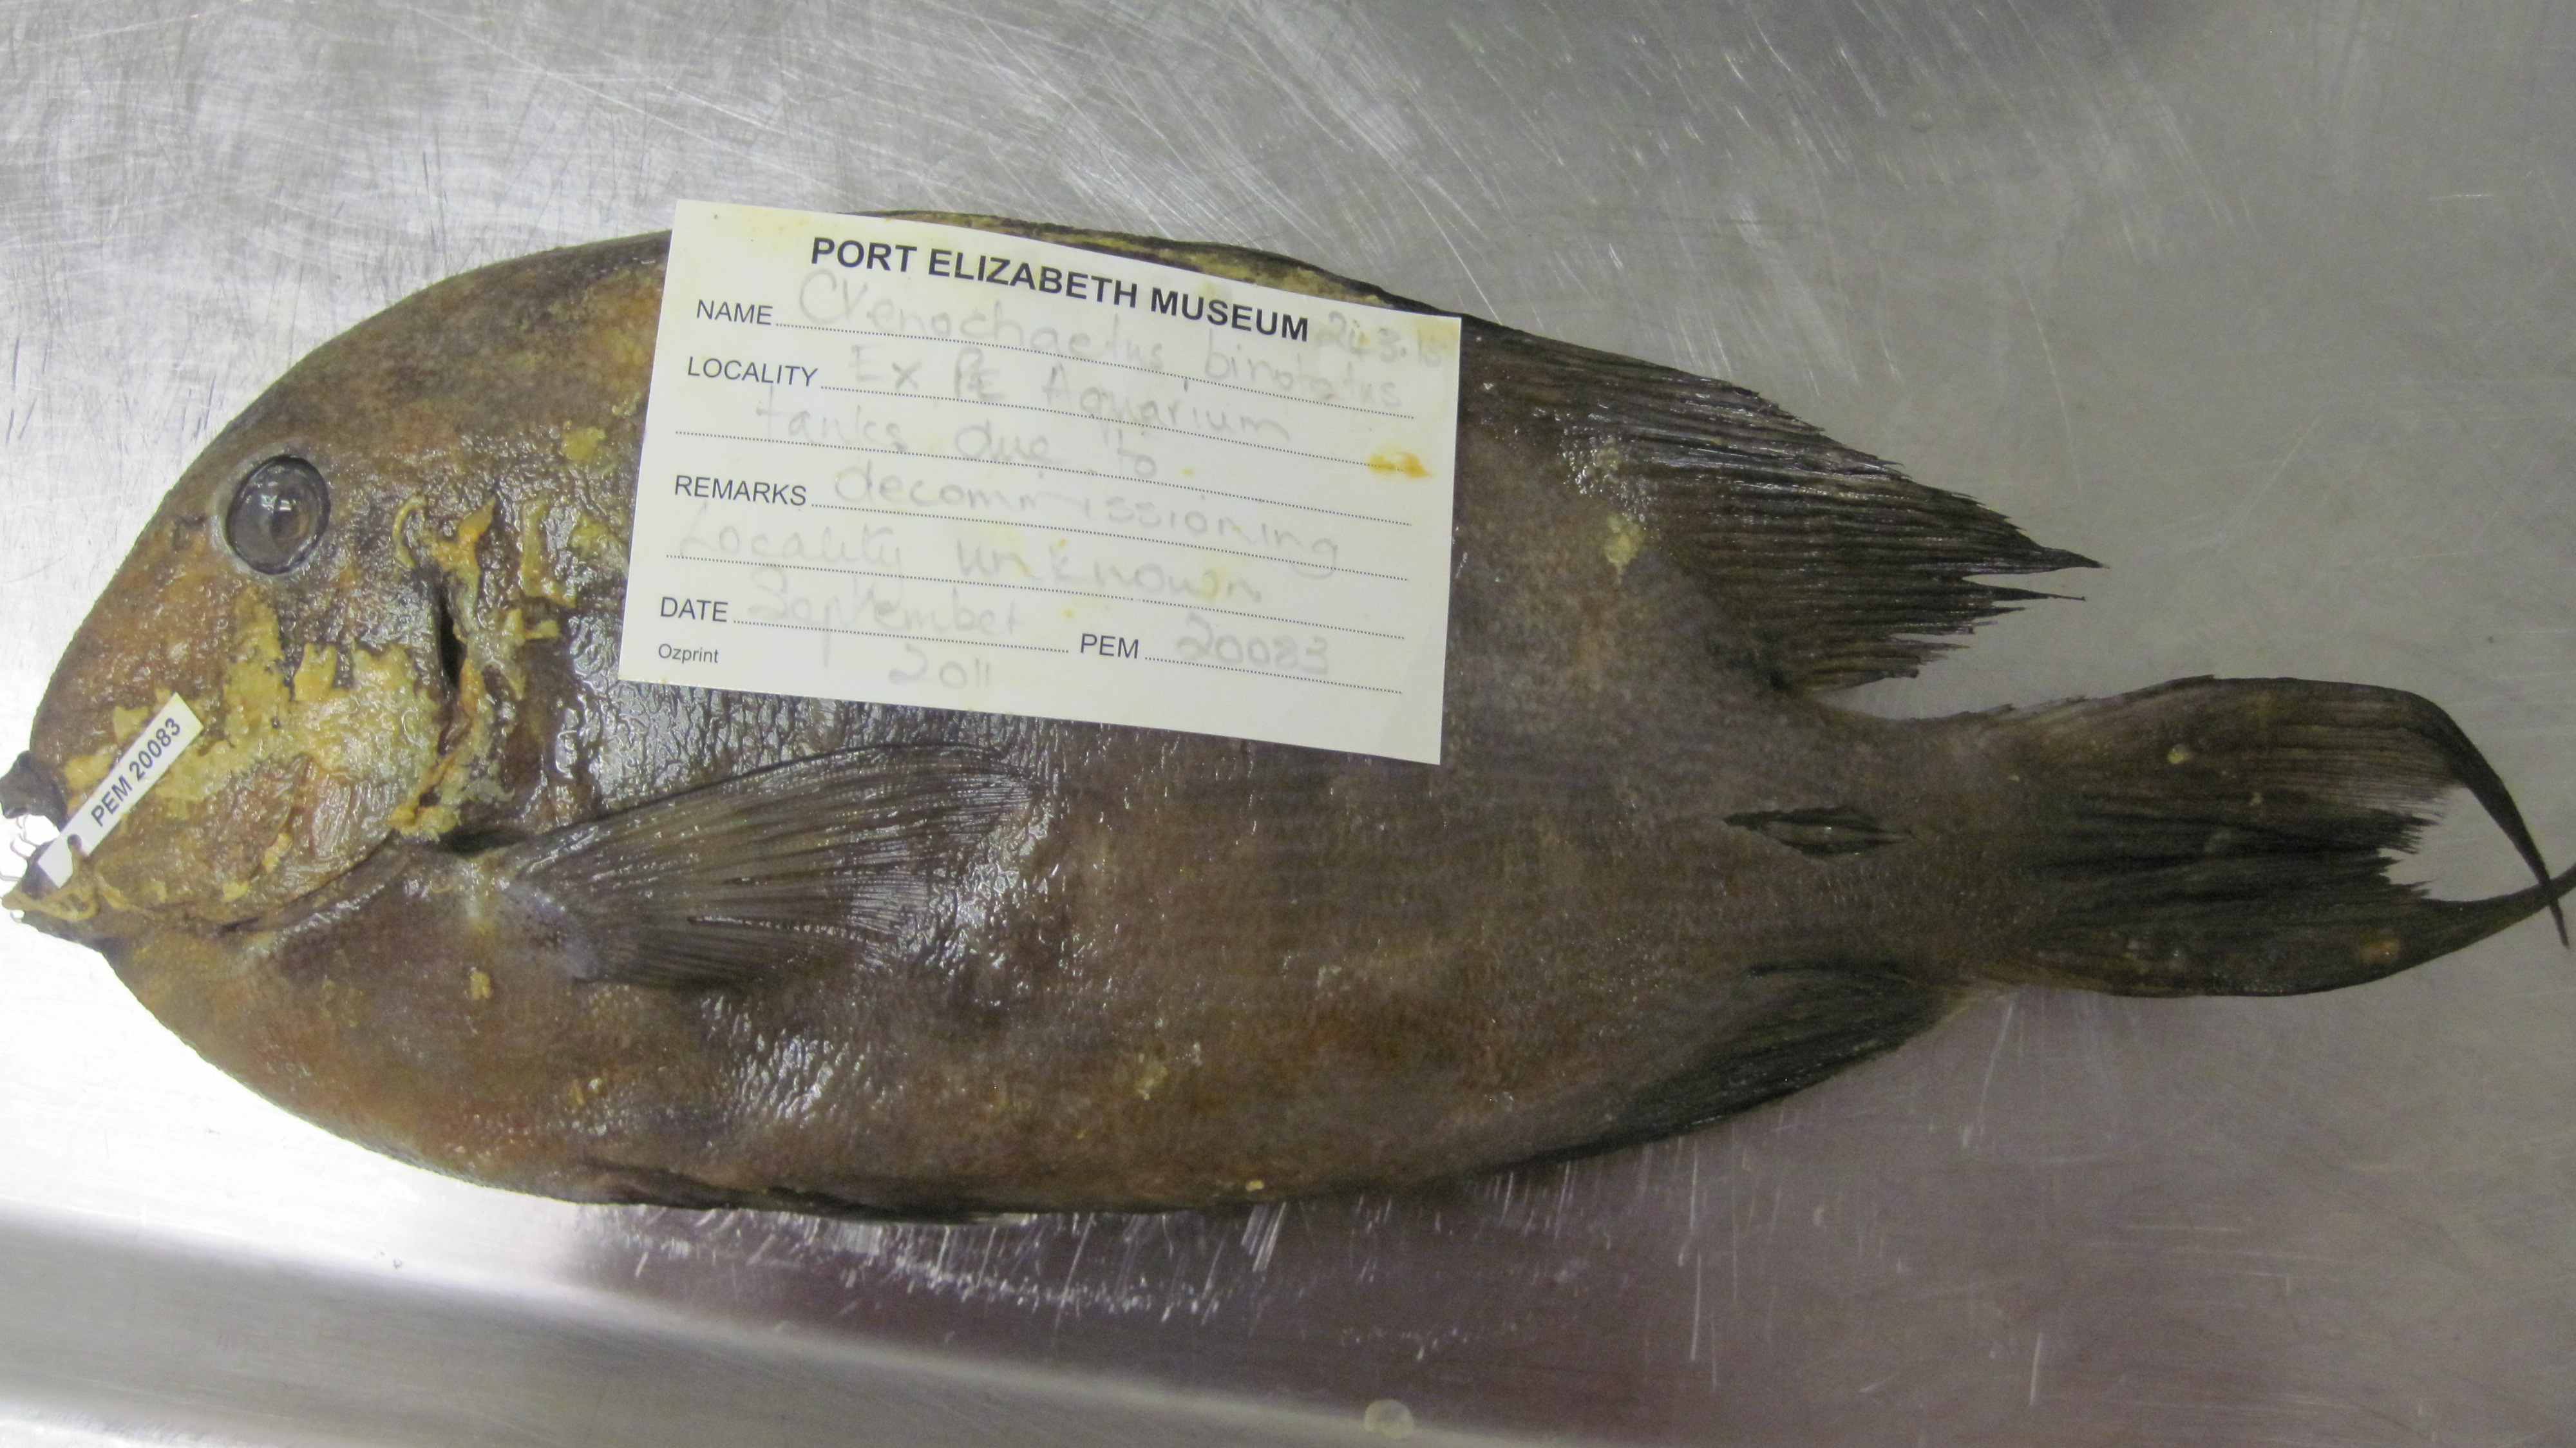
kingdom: Animalia
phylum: Chordata
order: Perciformes
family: Acanthuridae
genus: Ctenochaetus
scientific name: Ctenochaetus binotatus
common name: Two-spot bristletooth
